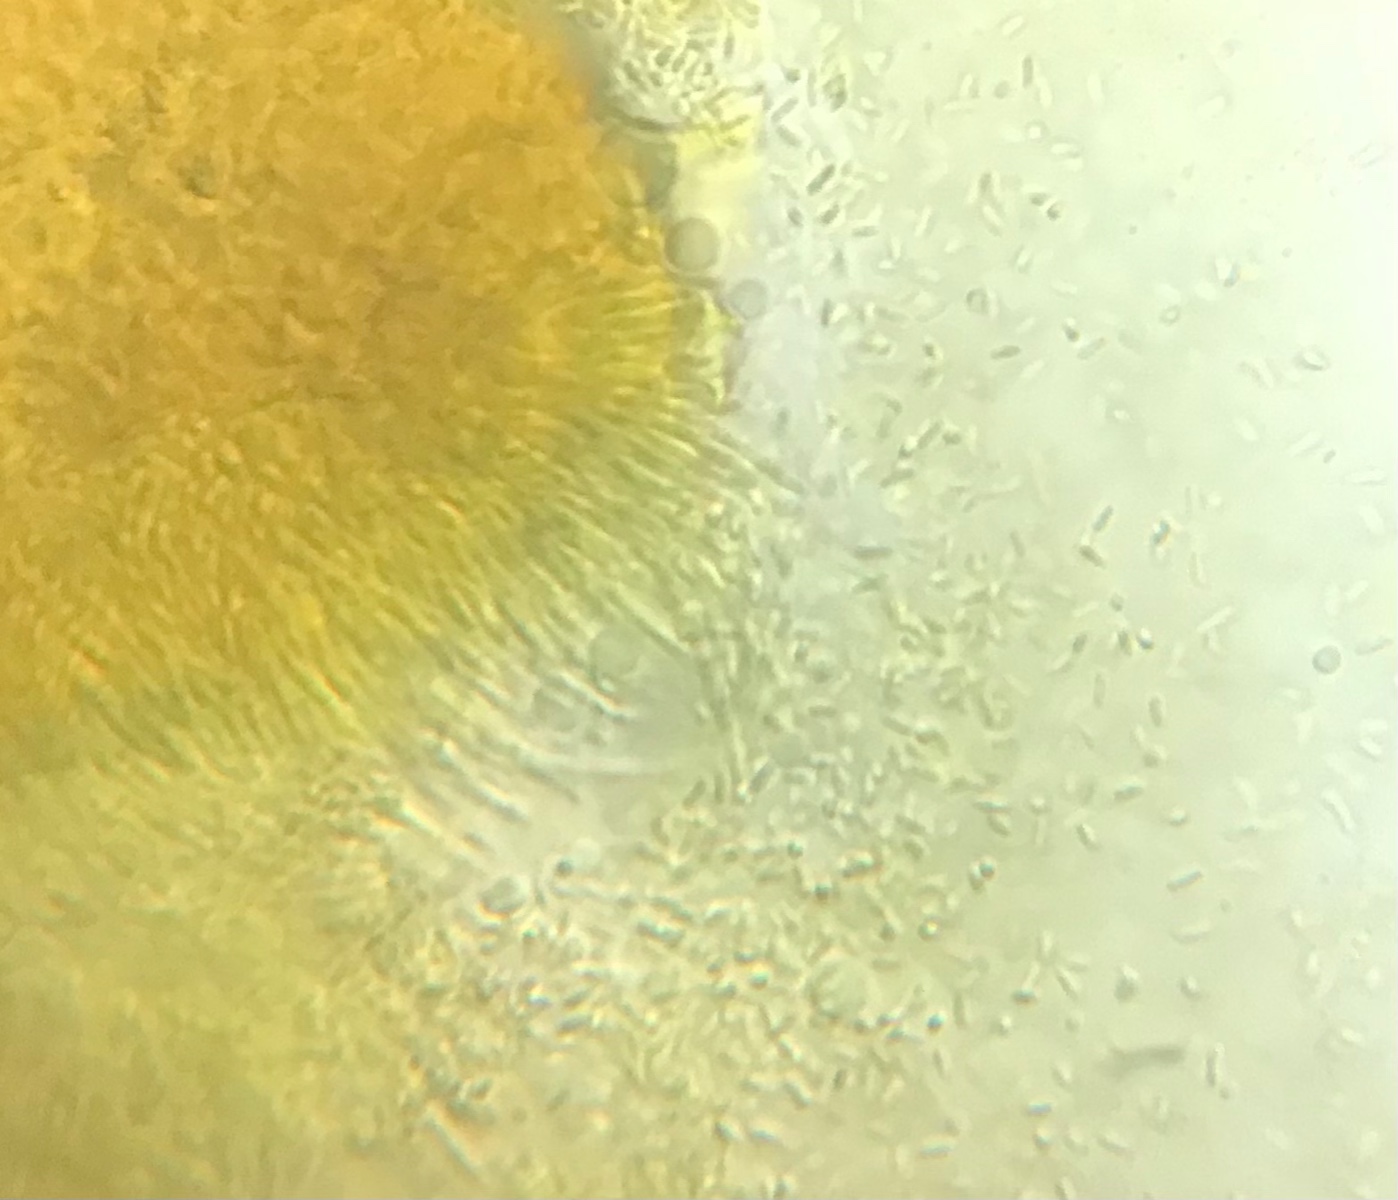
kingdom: Fungi
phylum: Ascomycota
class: Sordariomycetes
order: Hypocreales
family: Nectriaceae
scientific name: Nectriaceae
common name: cinnobersvampfamilien
